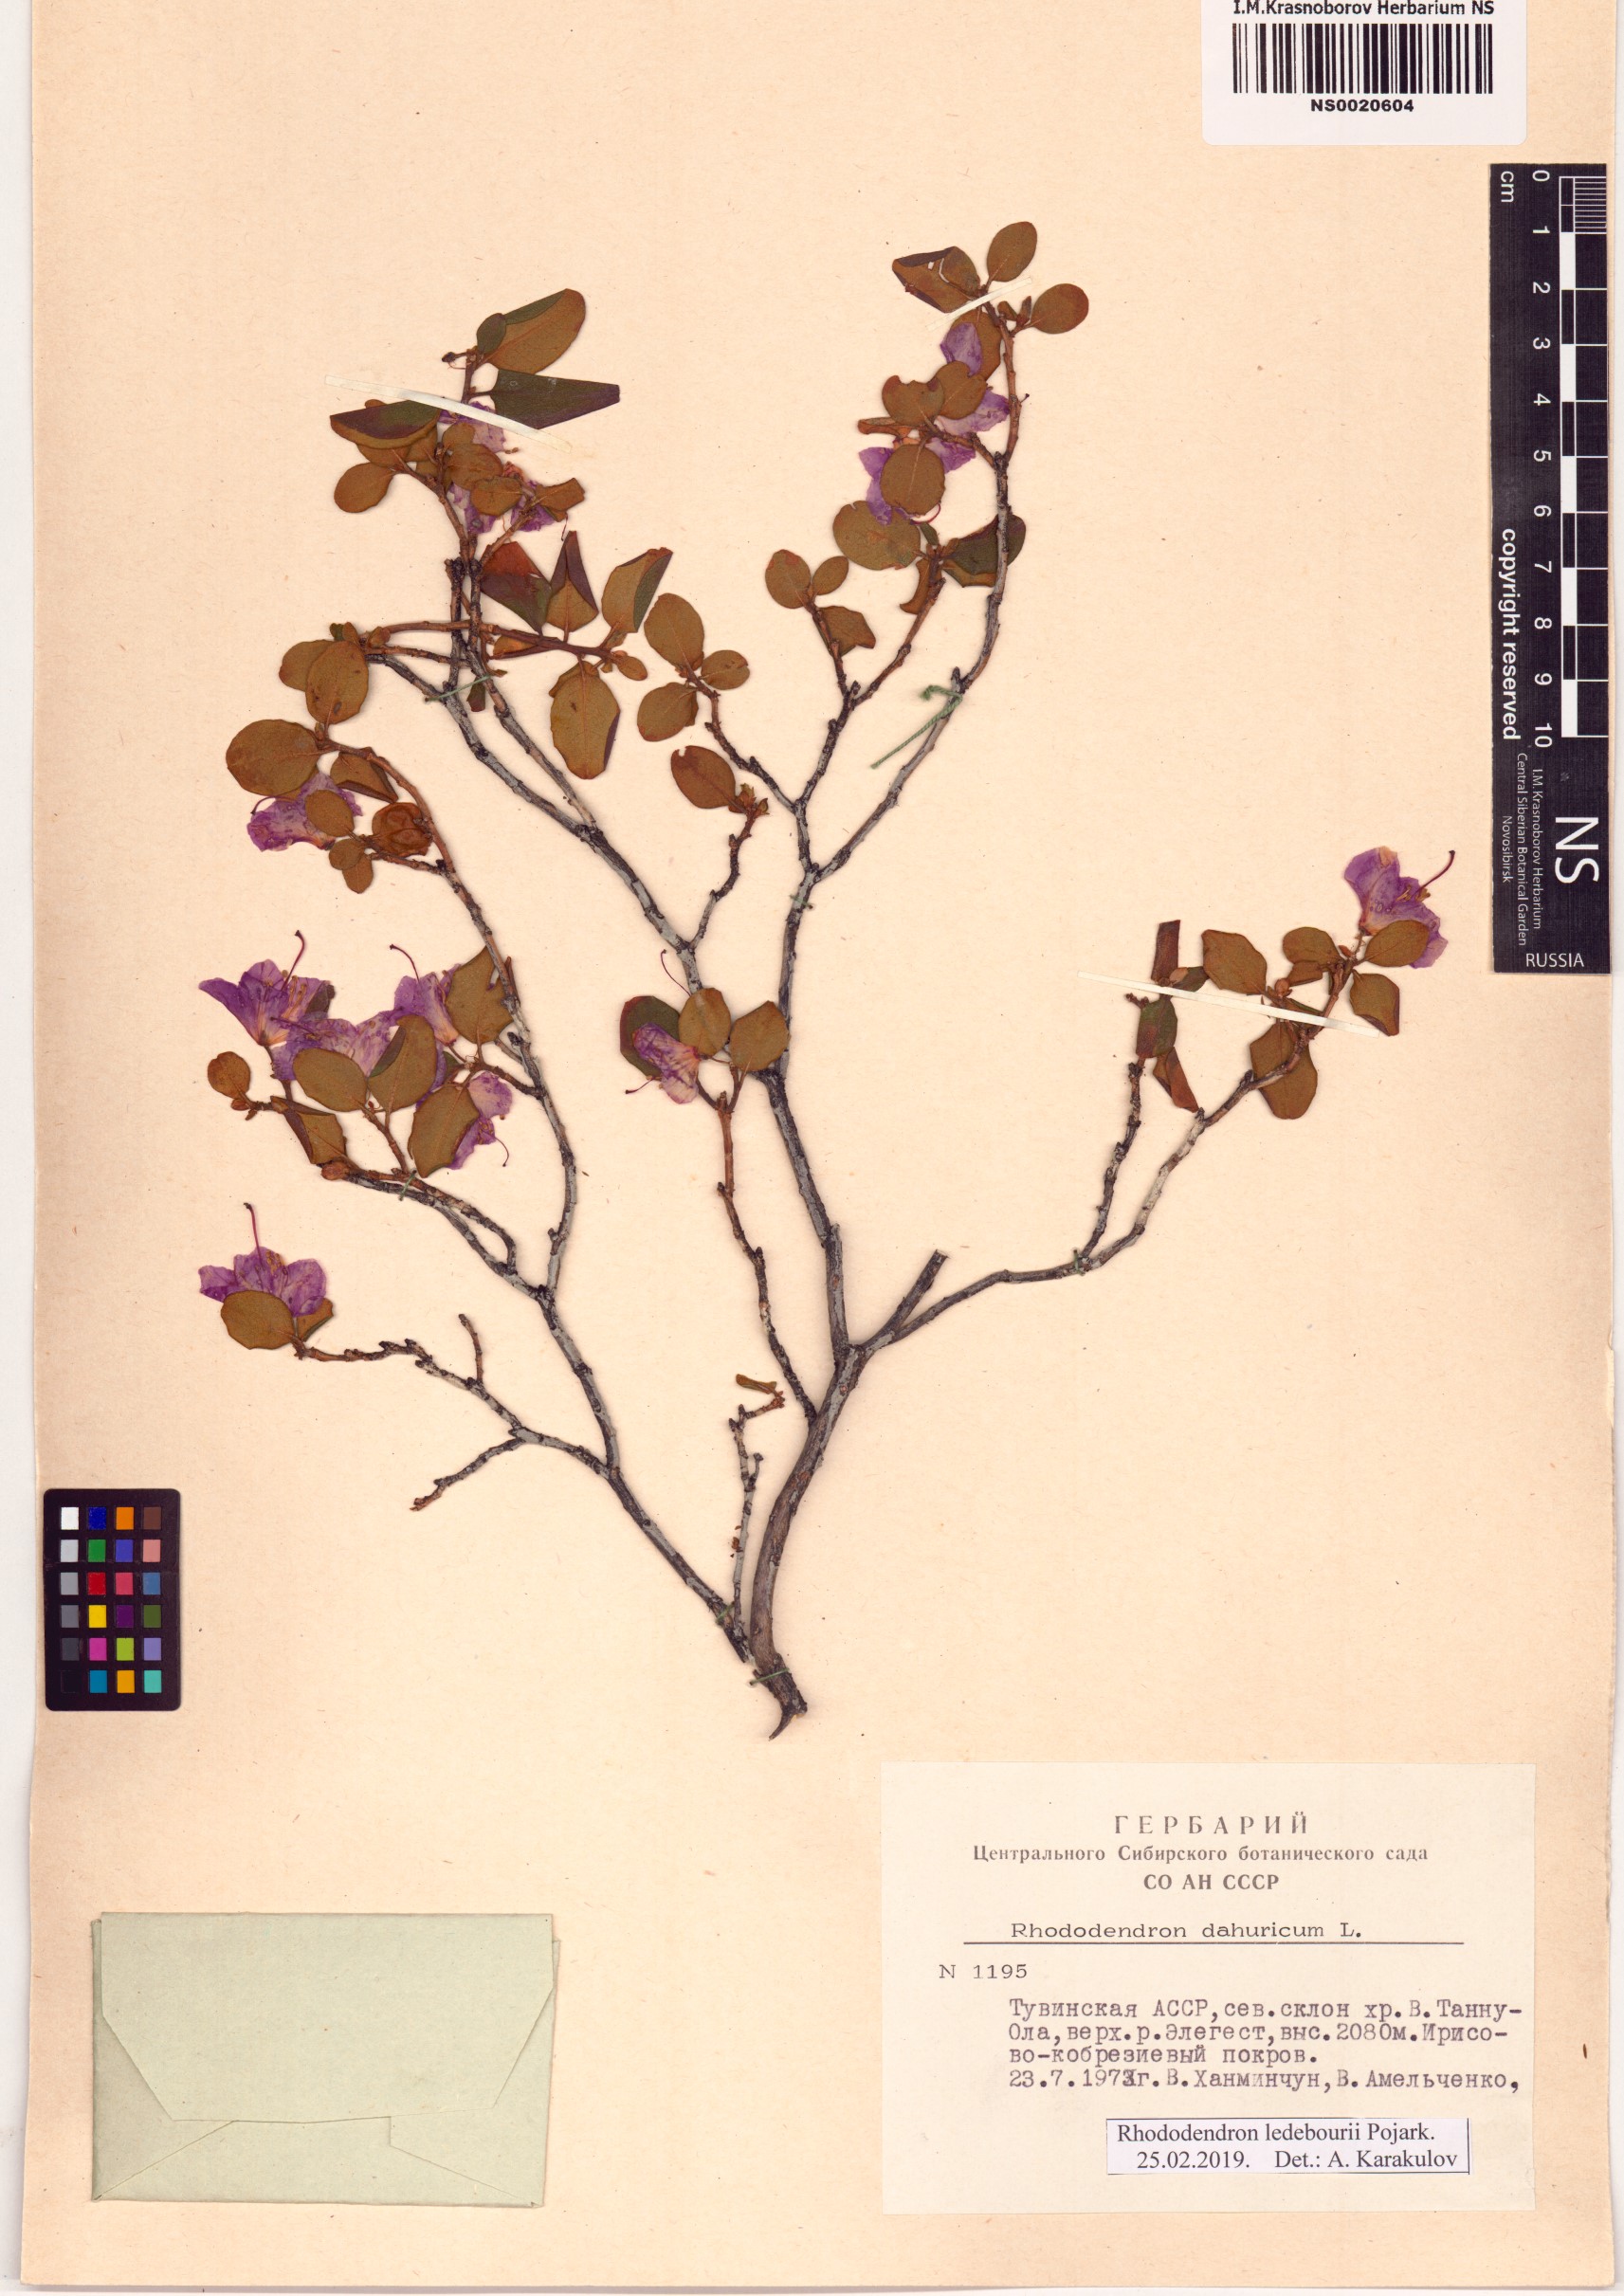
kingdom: Plantae
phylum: Tracheophyta
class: Magnoliopsida
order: Ericales
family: Ericaceae
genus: Rhododendron
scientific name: Rhododendron dauricum
